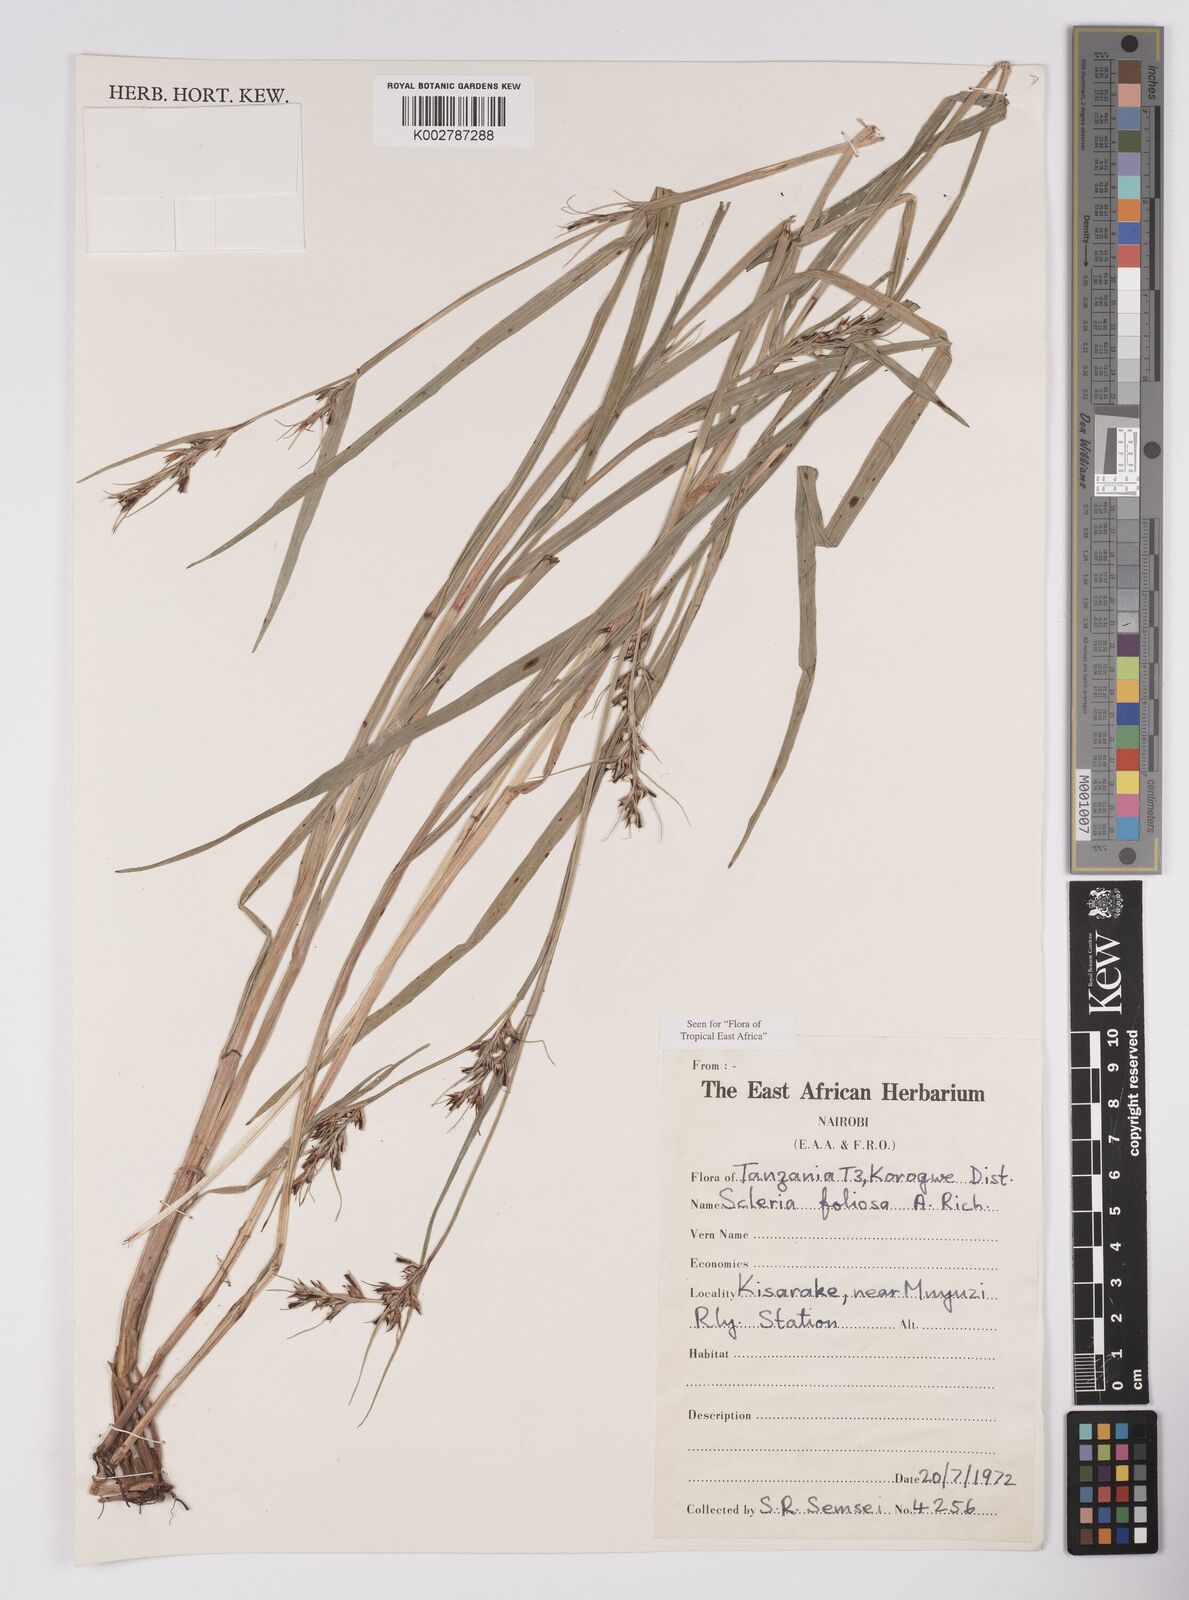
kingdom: Plantae
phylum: Tracheophyta
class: Liliopsida
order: Poales
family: Cyperaceae
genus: Scleria
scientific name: Scleria foliosa
